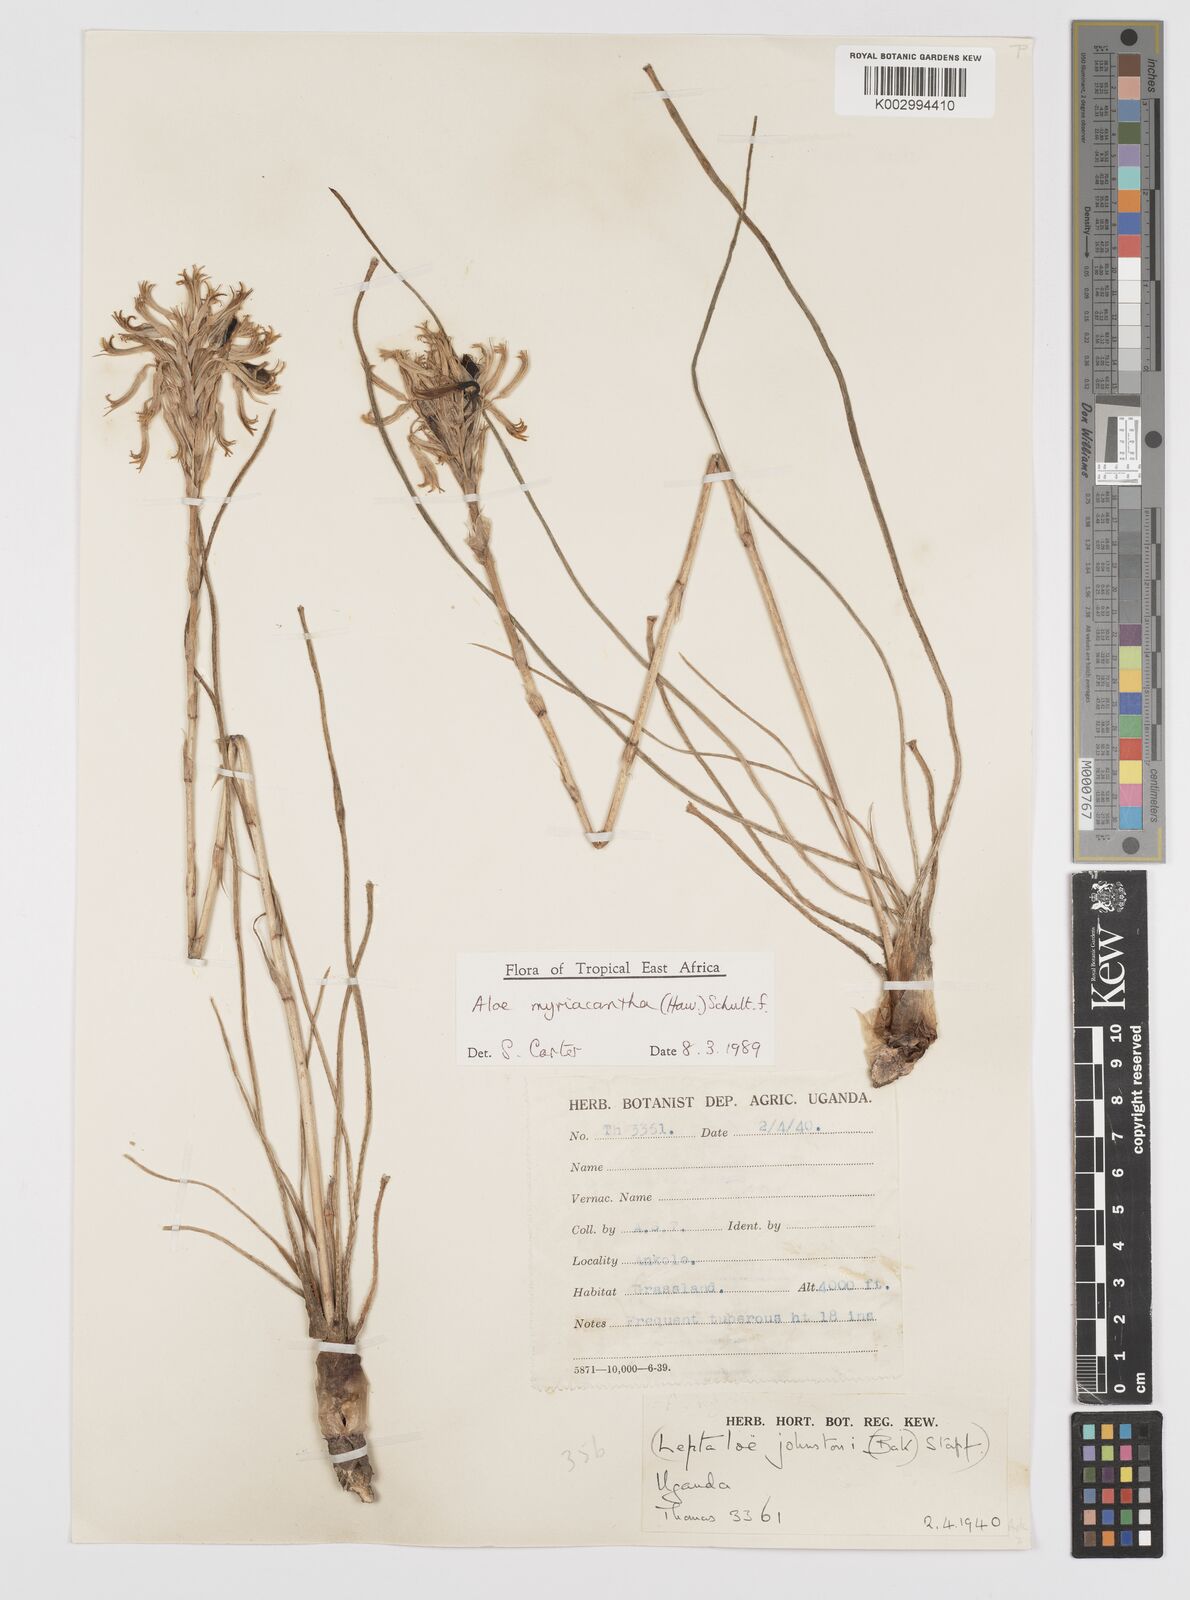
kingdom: Plantae
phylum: Tracheophyta
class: Liliopsida
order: Asparagales
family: Asphodelaceae
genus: Aloe
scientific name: Aloe myriacantha
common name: Grass aloe
